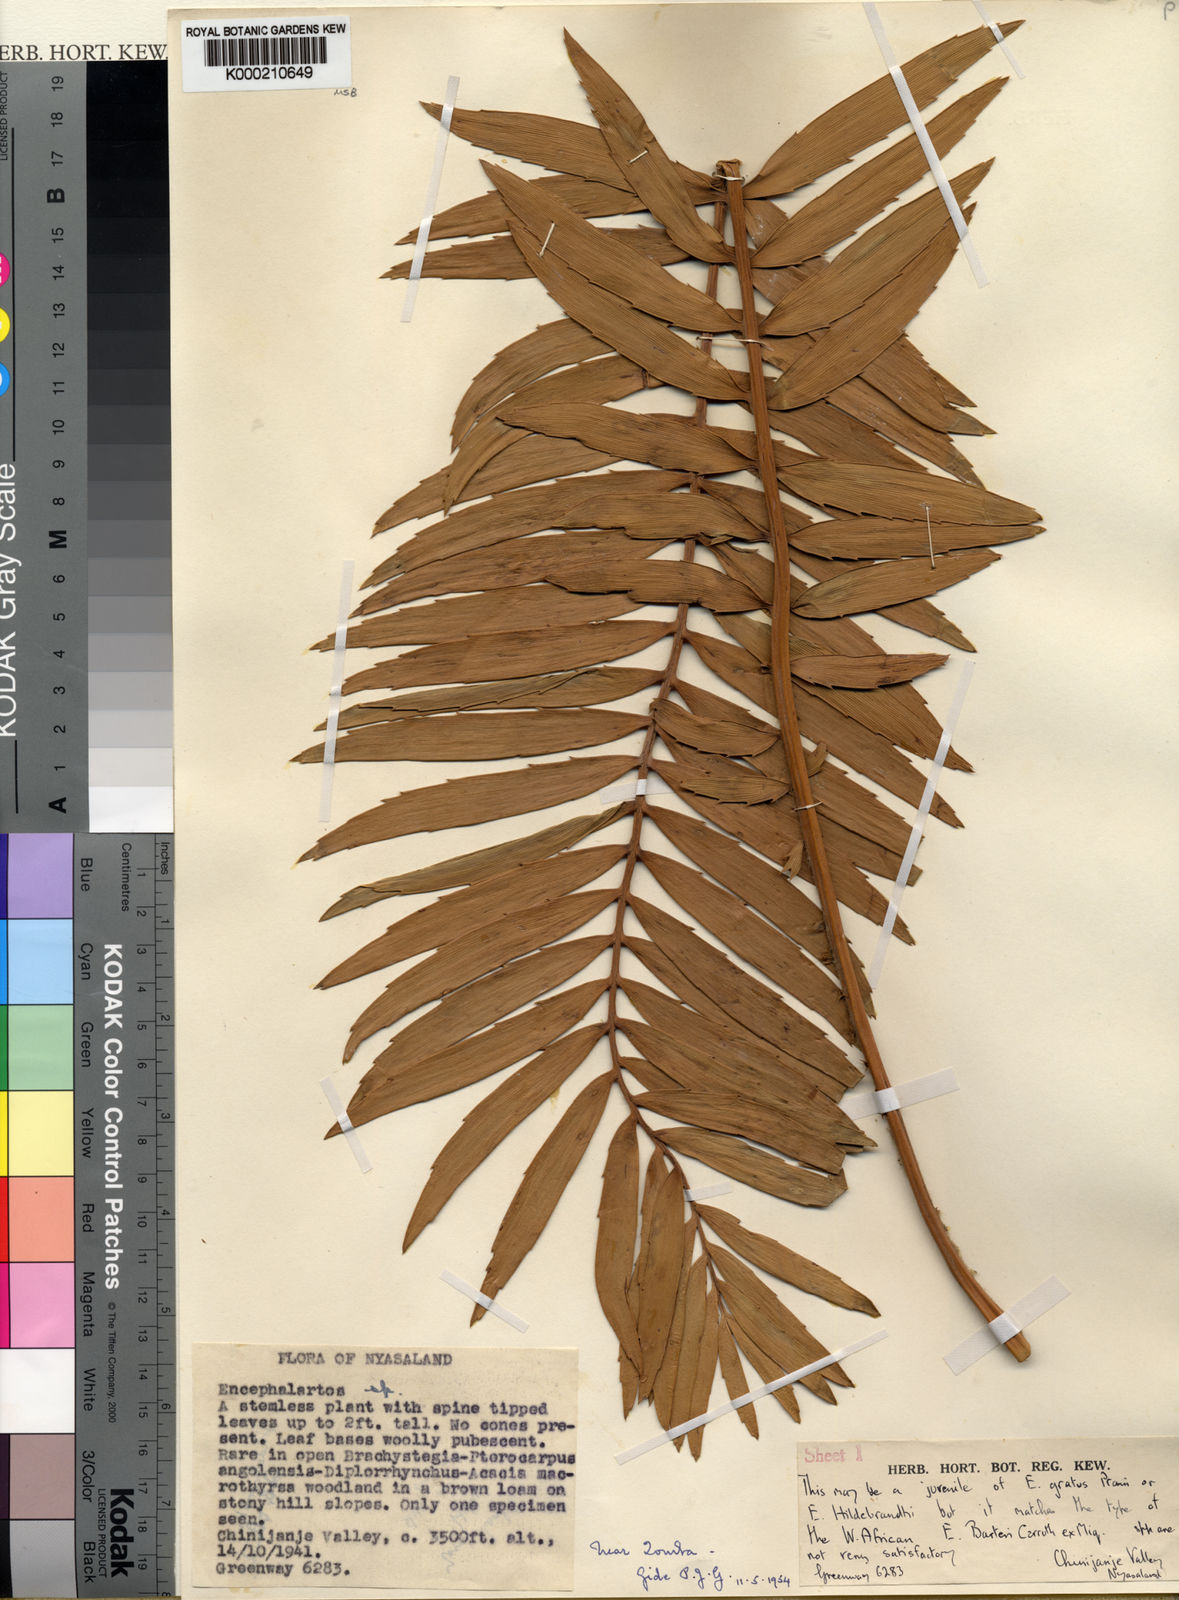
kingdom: Plantae
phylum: Tracheophyta
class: Cycadopsida
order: Cycadales
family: Zamiaceae
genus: Encephalartos
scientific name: Encephalartos gratus
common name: Mulanje cycad
